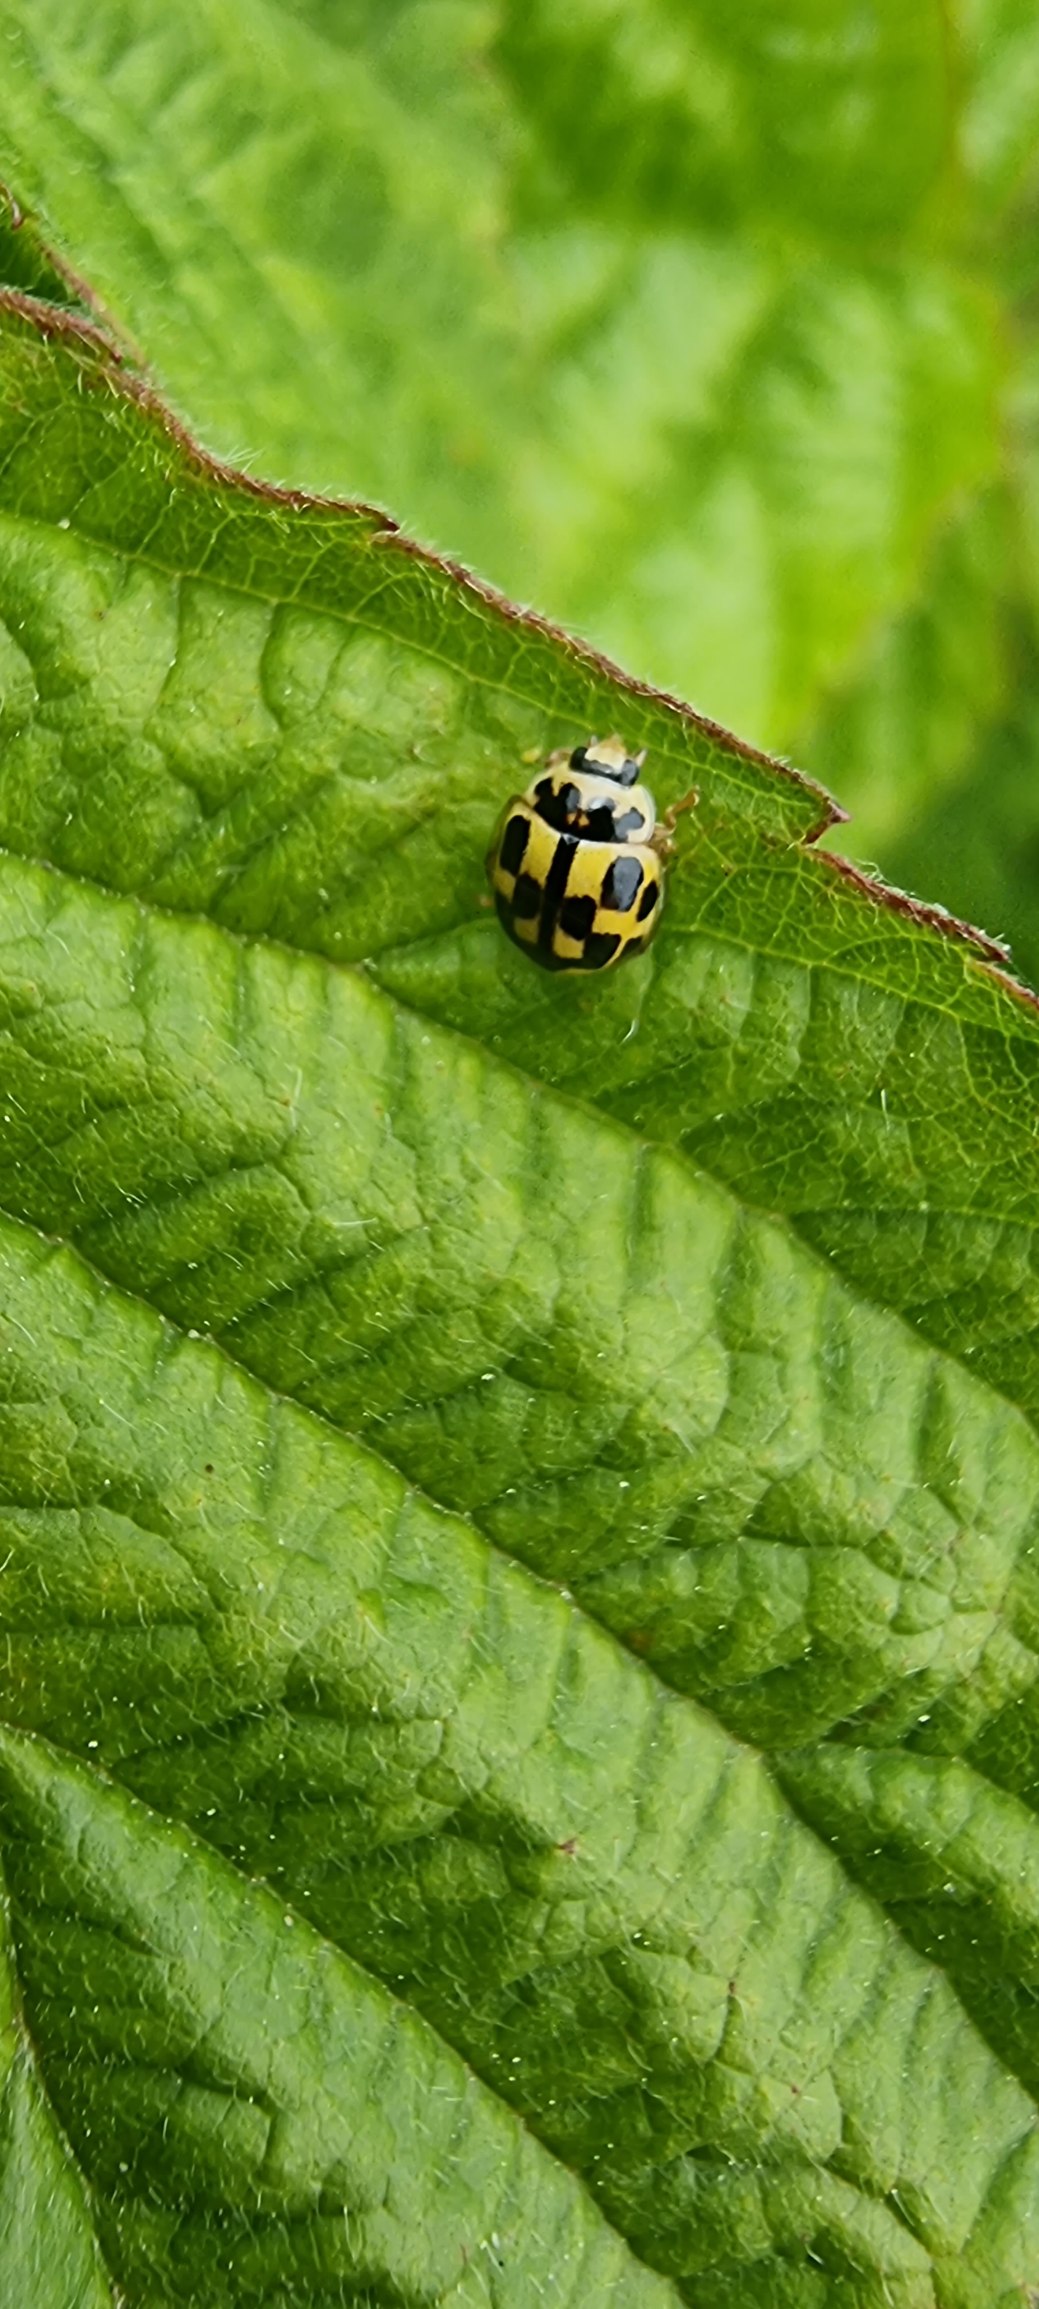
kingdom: Animalia
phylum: Arthropoda
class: Insecta
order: Coleoptera
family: Coccinellidae
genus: Propylaea
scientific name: Propylaea quatuordecimpunctata
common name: Skakbræt
